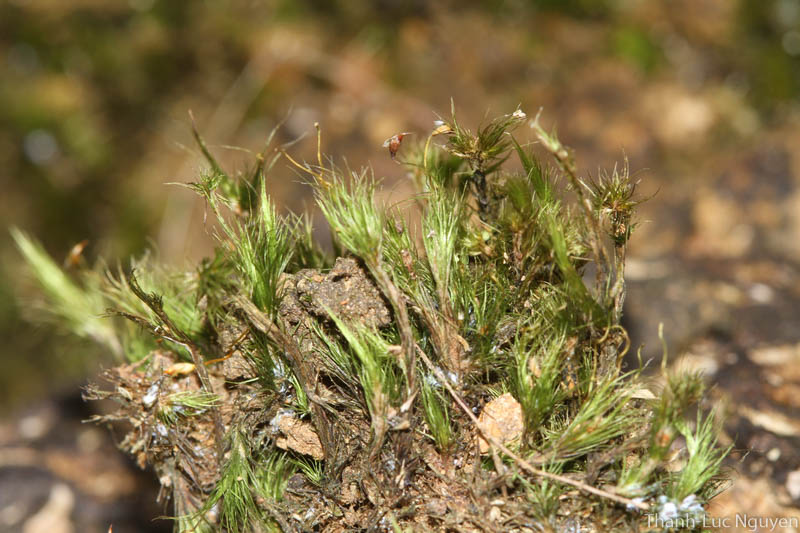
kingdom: Plantae
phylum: Bryophyta
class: Bryopsida
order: Dicranales
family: Leucobryaceae
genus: Campylopus
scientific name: Campylopus
